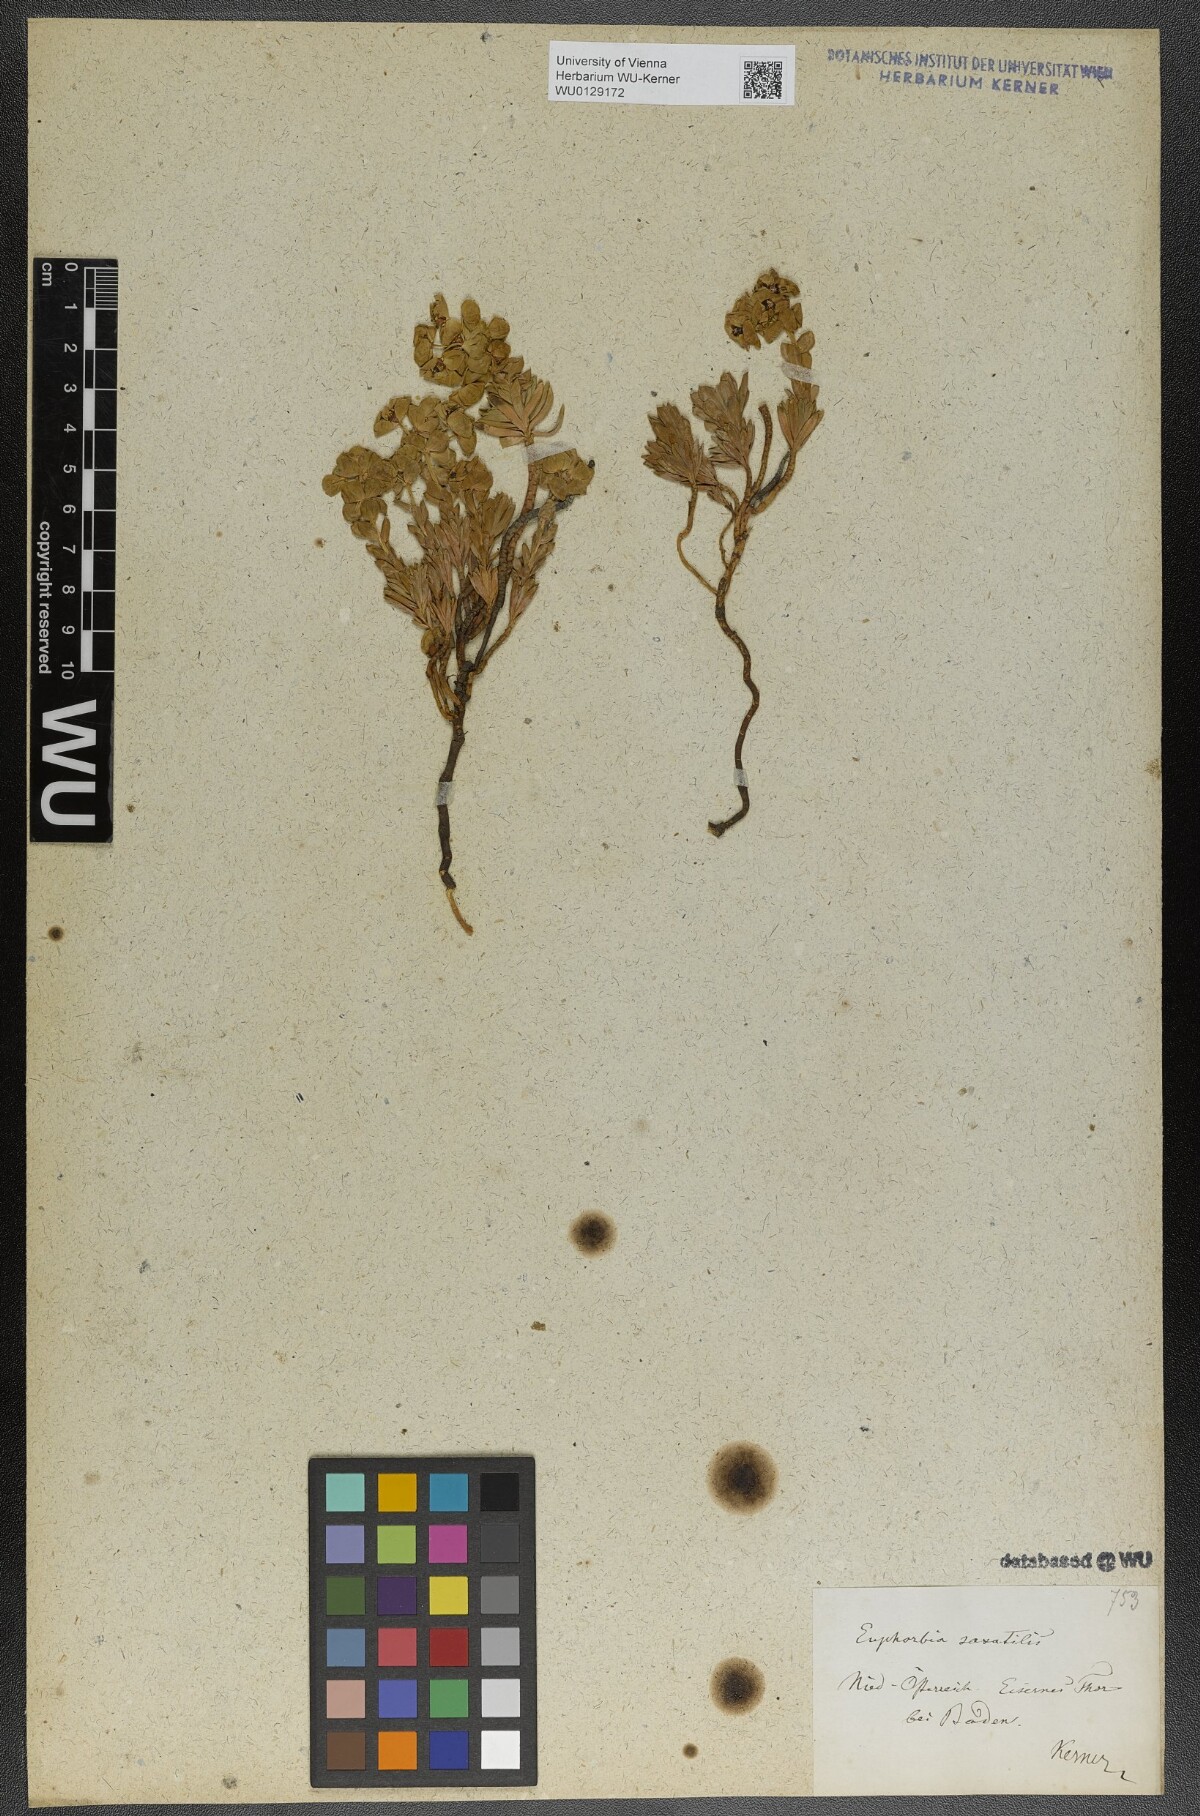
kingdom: Plantae
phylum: Tracheophyta
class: Magnoliopsida
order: Malpighiales
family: Euphorbiaceae
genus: Euphorbia
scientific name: Euphorbia saxatilis
